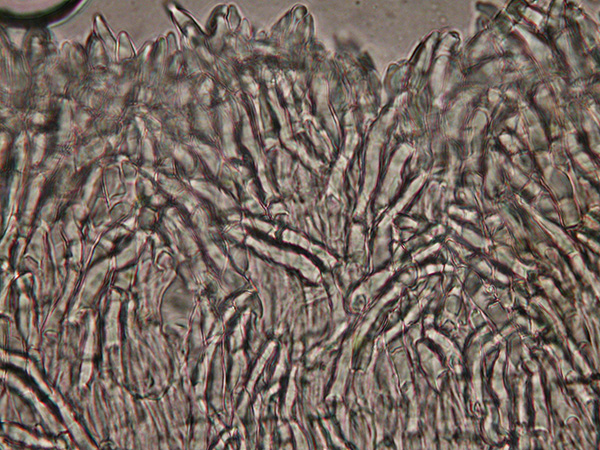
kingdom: Fungi
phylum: Ascomycota
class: Leotiomycetes
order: Helotiales
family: Hyaloscyphaceae
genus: Hyalopeziza
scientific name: Hyalopeziza millepunctata
